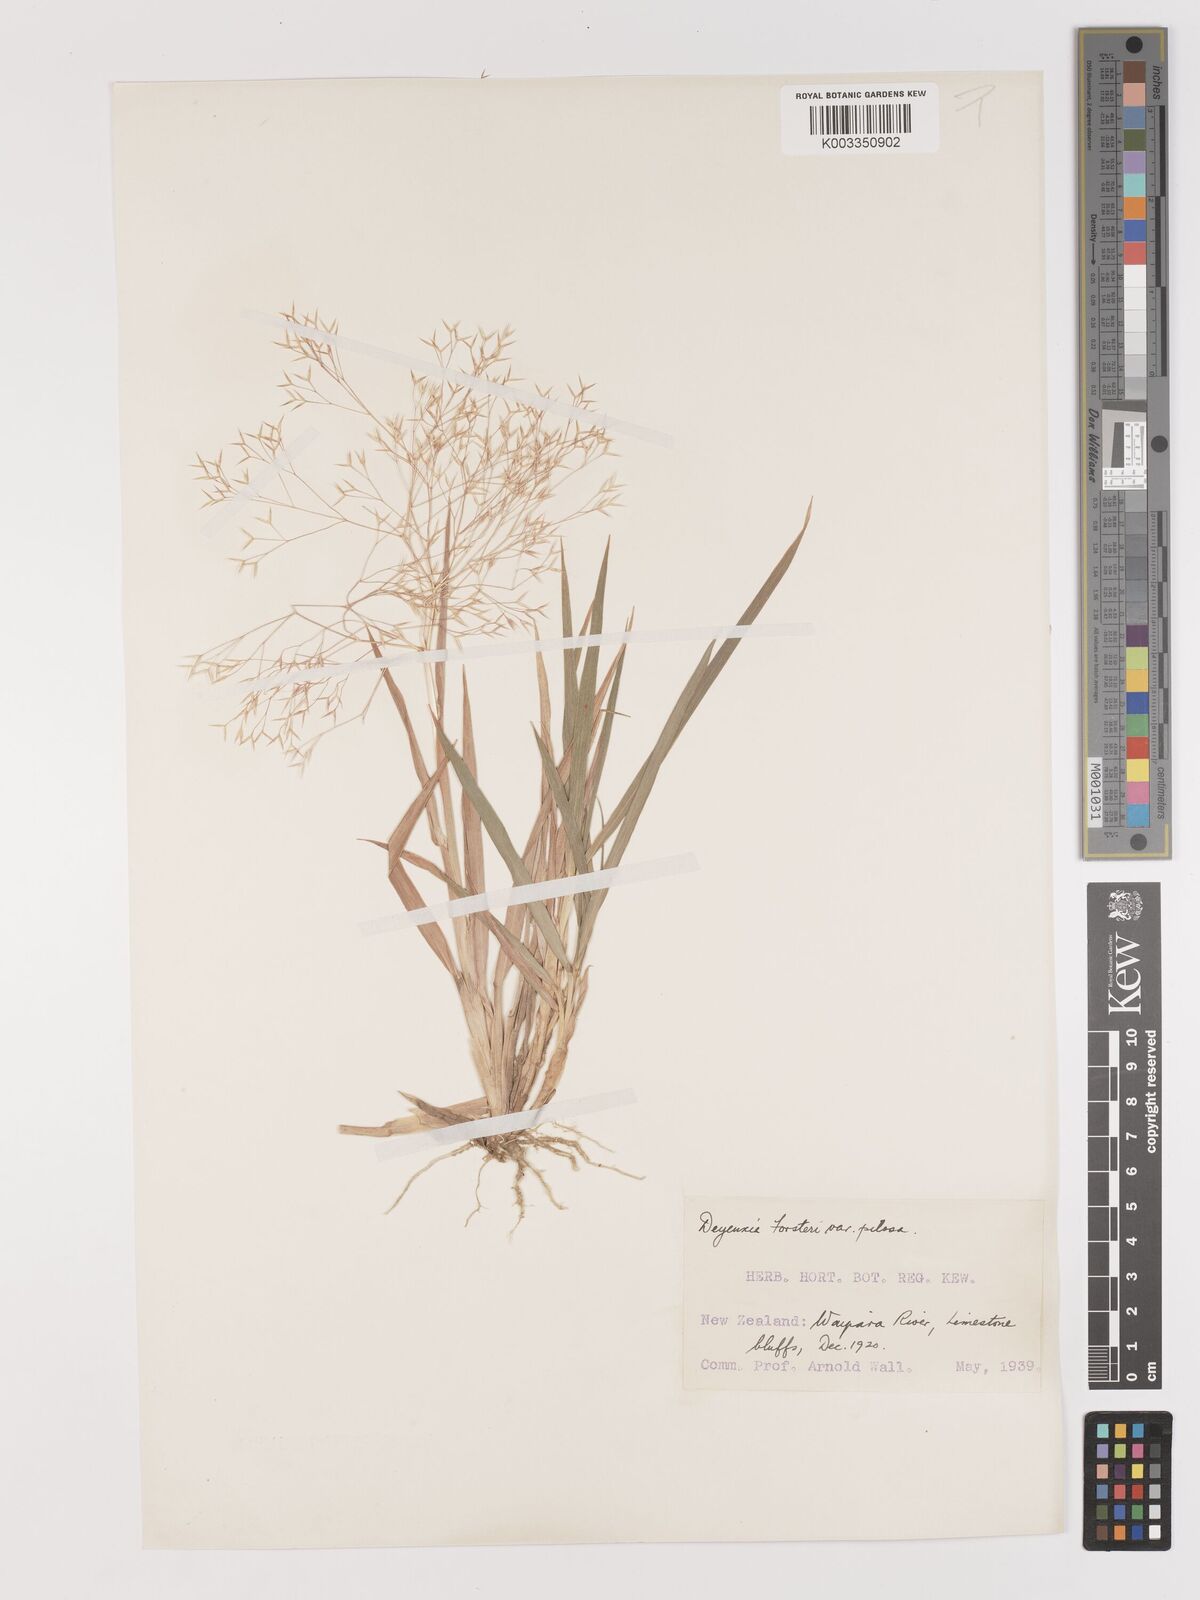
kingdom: Plantae
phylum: Tracheophyta
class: Liliopsida
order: Poales
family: Poaceae
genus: Lachnagrostis
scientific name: Lachnagrostis filiformis
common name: Bentgrass
